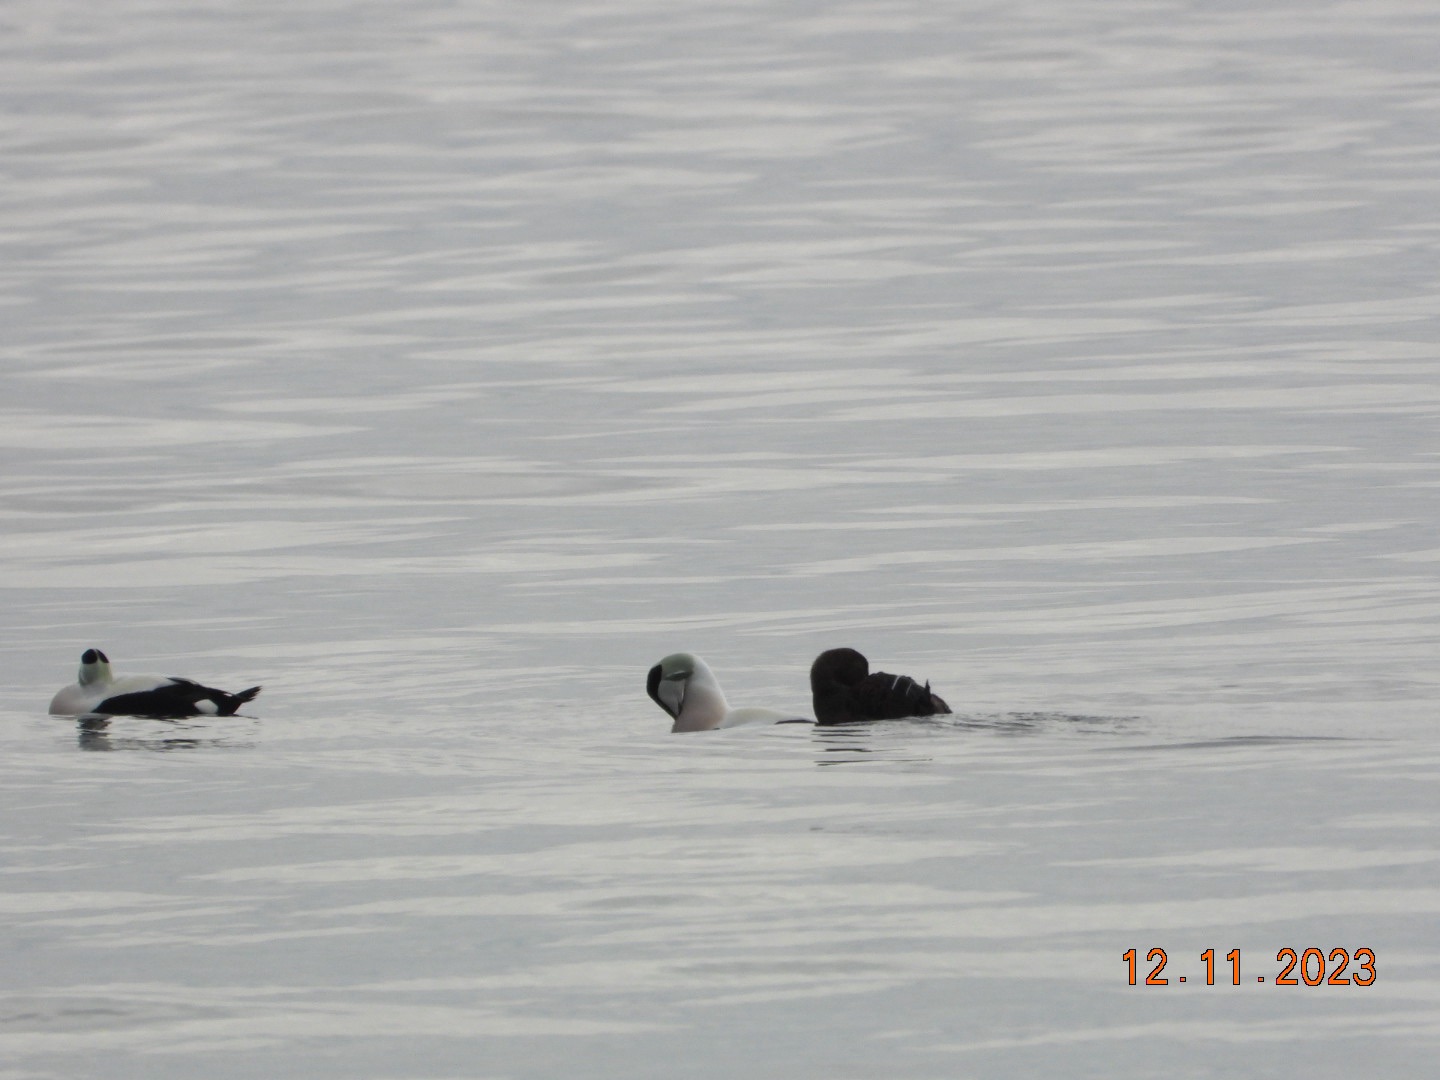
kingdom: Animalia
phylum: Chordata
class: Aves
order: Anseriformes
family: Anatidae
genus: Somateria
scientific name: Somateria mollissima
